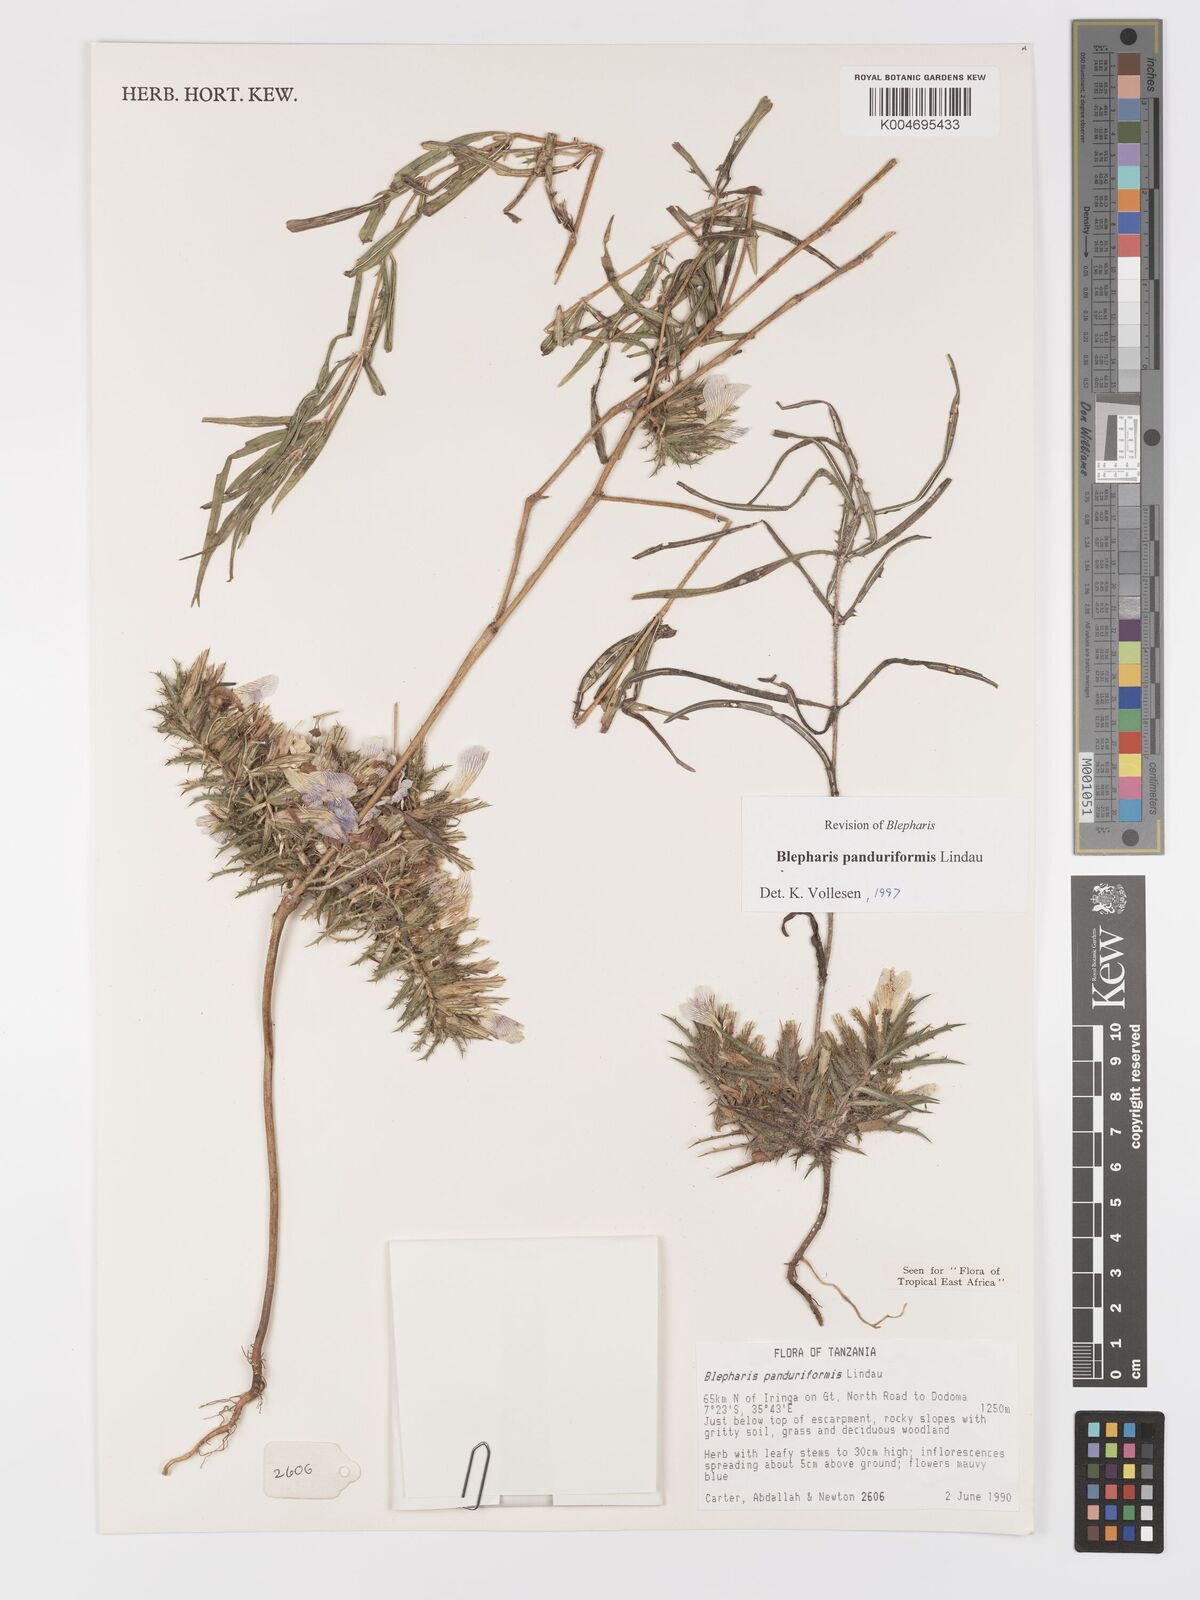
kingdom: Plantae
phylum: Tracheophyta
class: Magnoliopsida
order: Lamiales
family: Acanthaceae
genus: Blepharis
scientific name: Blepharis panduriformis
